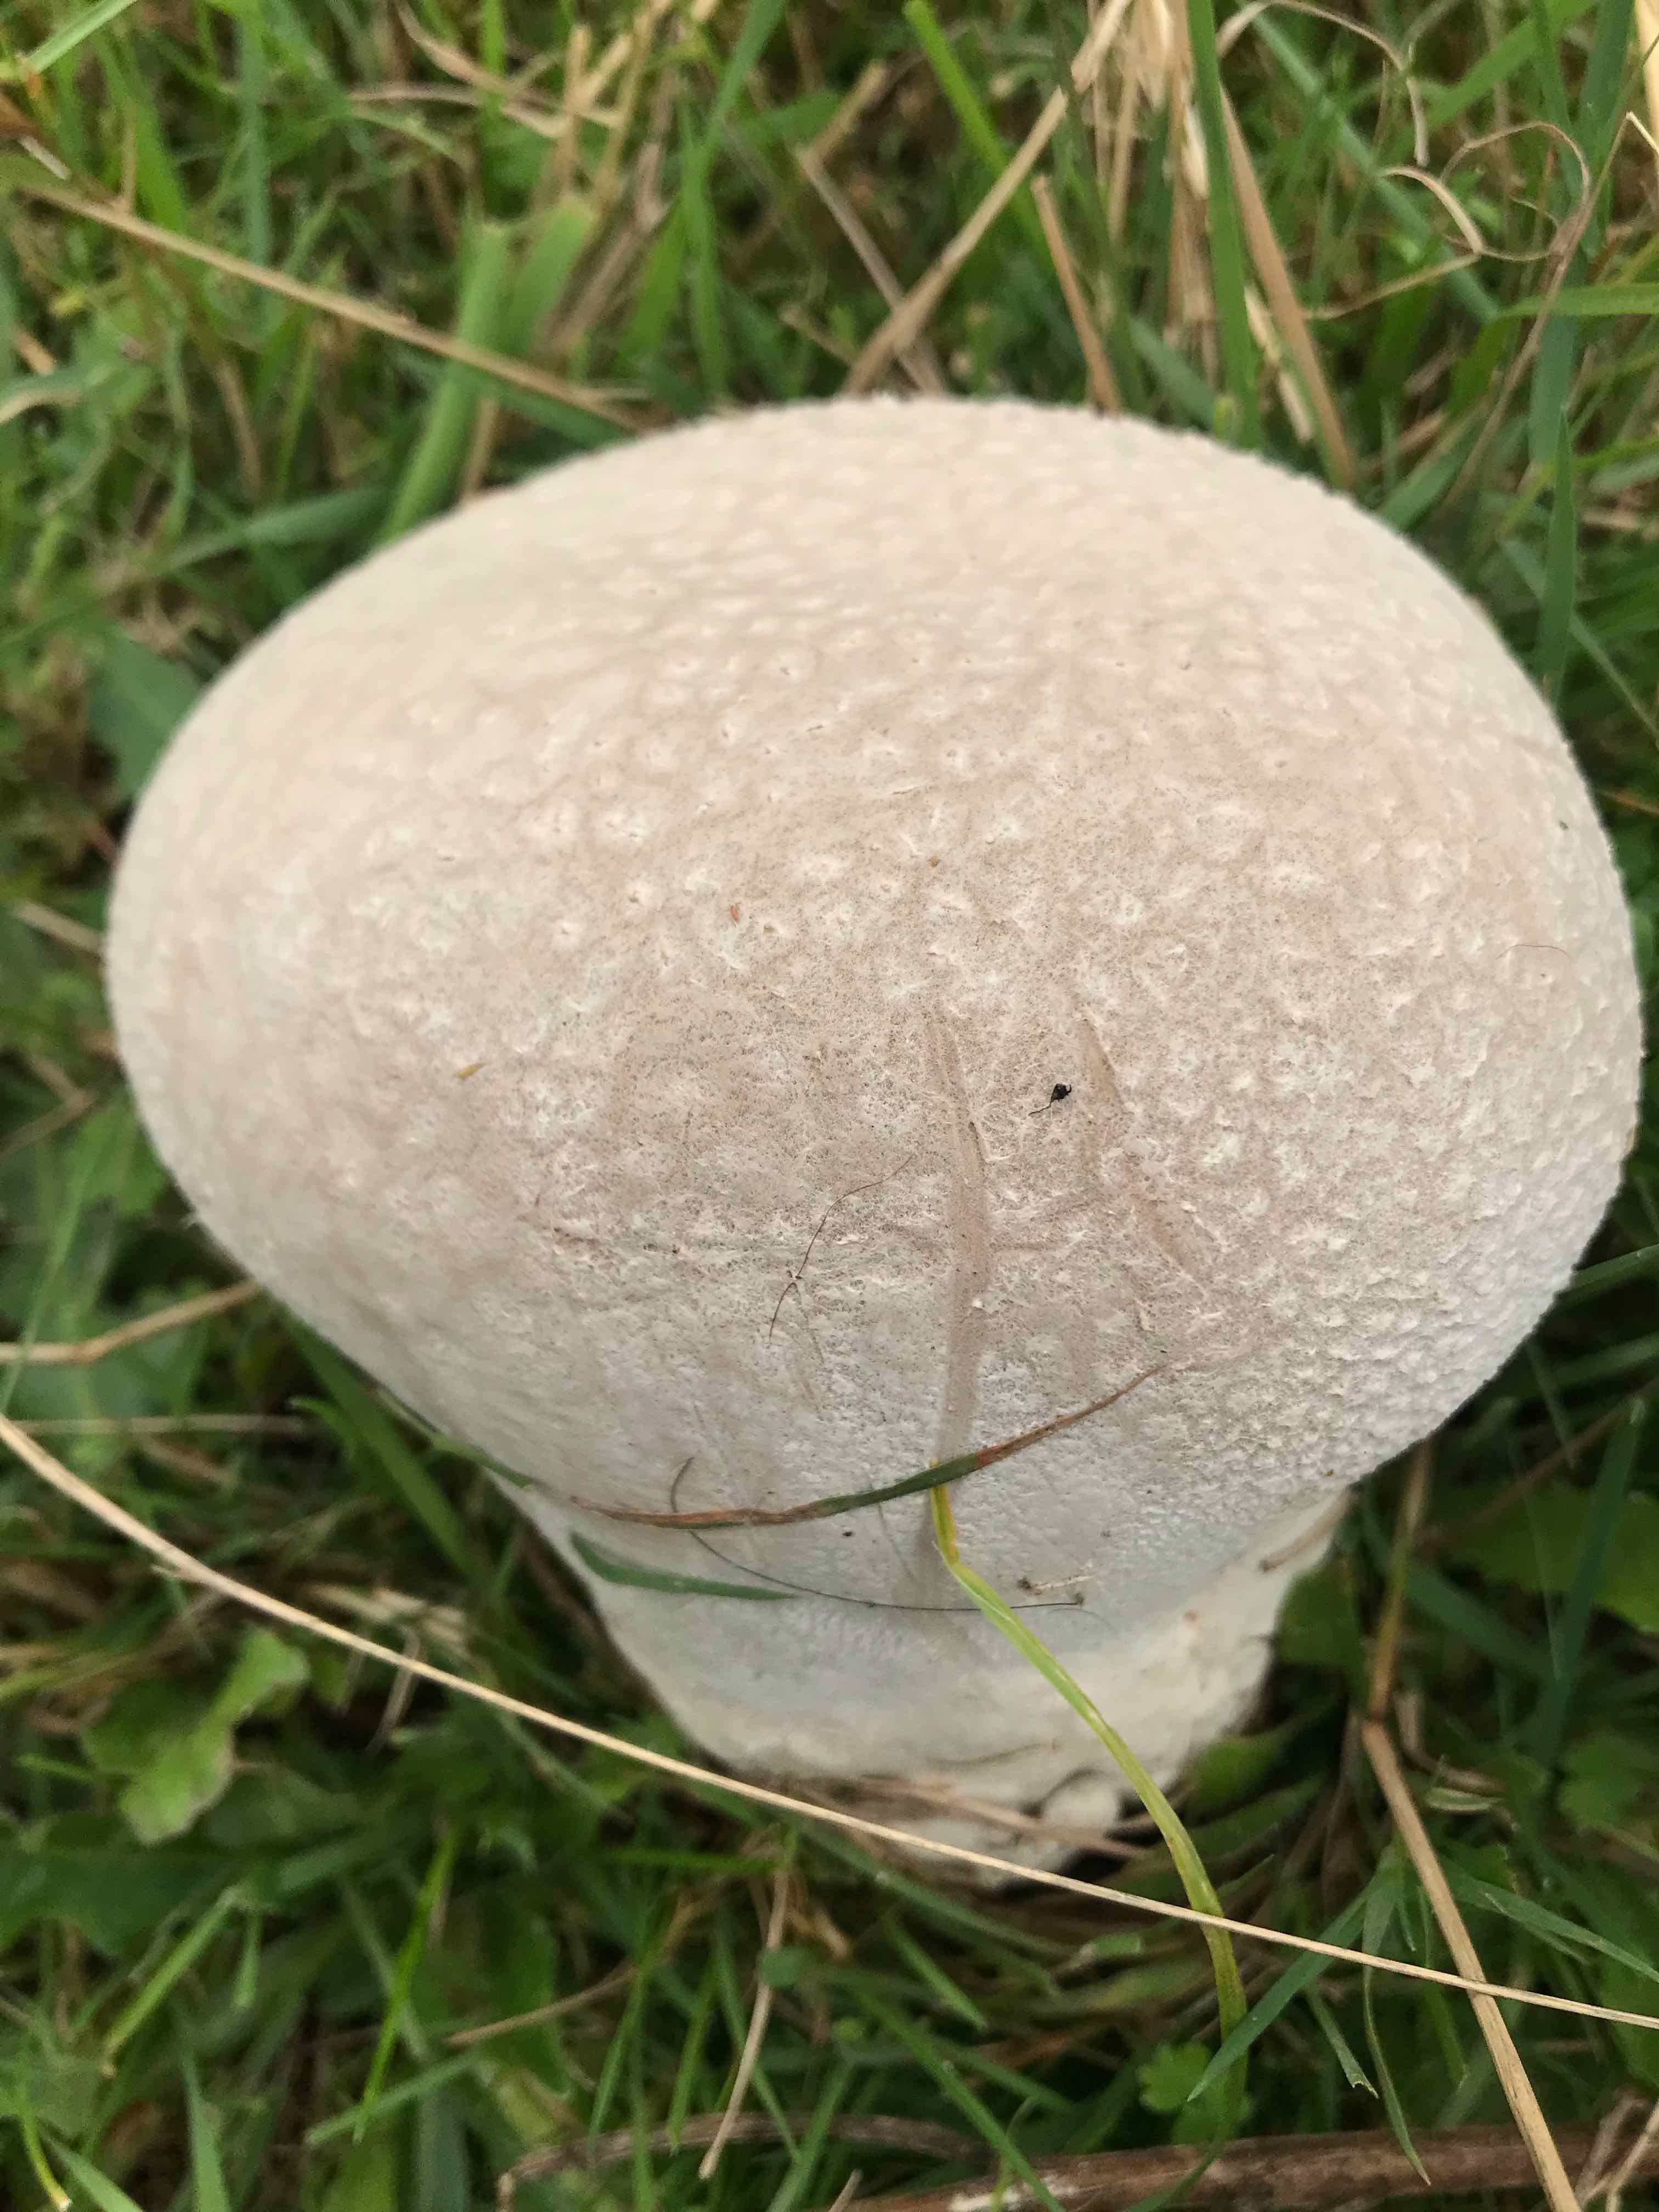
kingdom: Fungi
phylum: Basidiomycota
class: Agaricomycetes
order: Agaricales
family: Lycoperdaceae
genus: Bovistella
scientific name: Bovistella utriformis
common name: skællet støvbold
